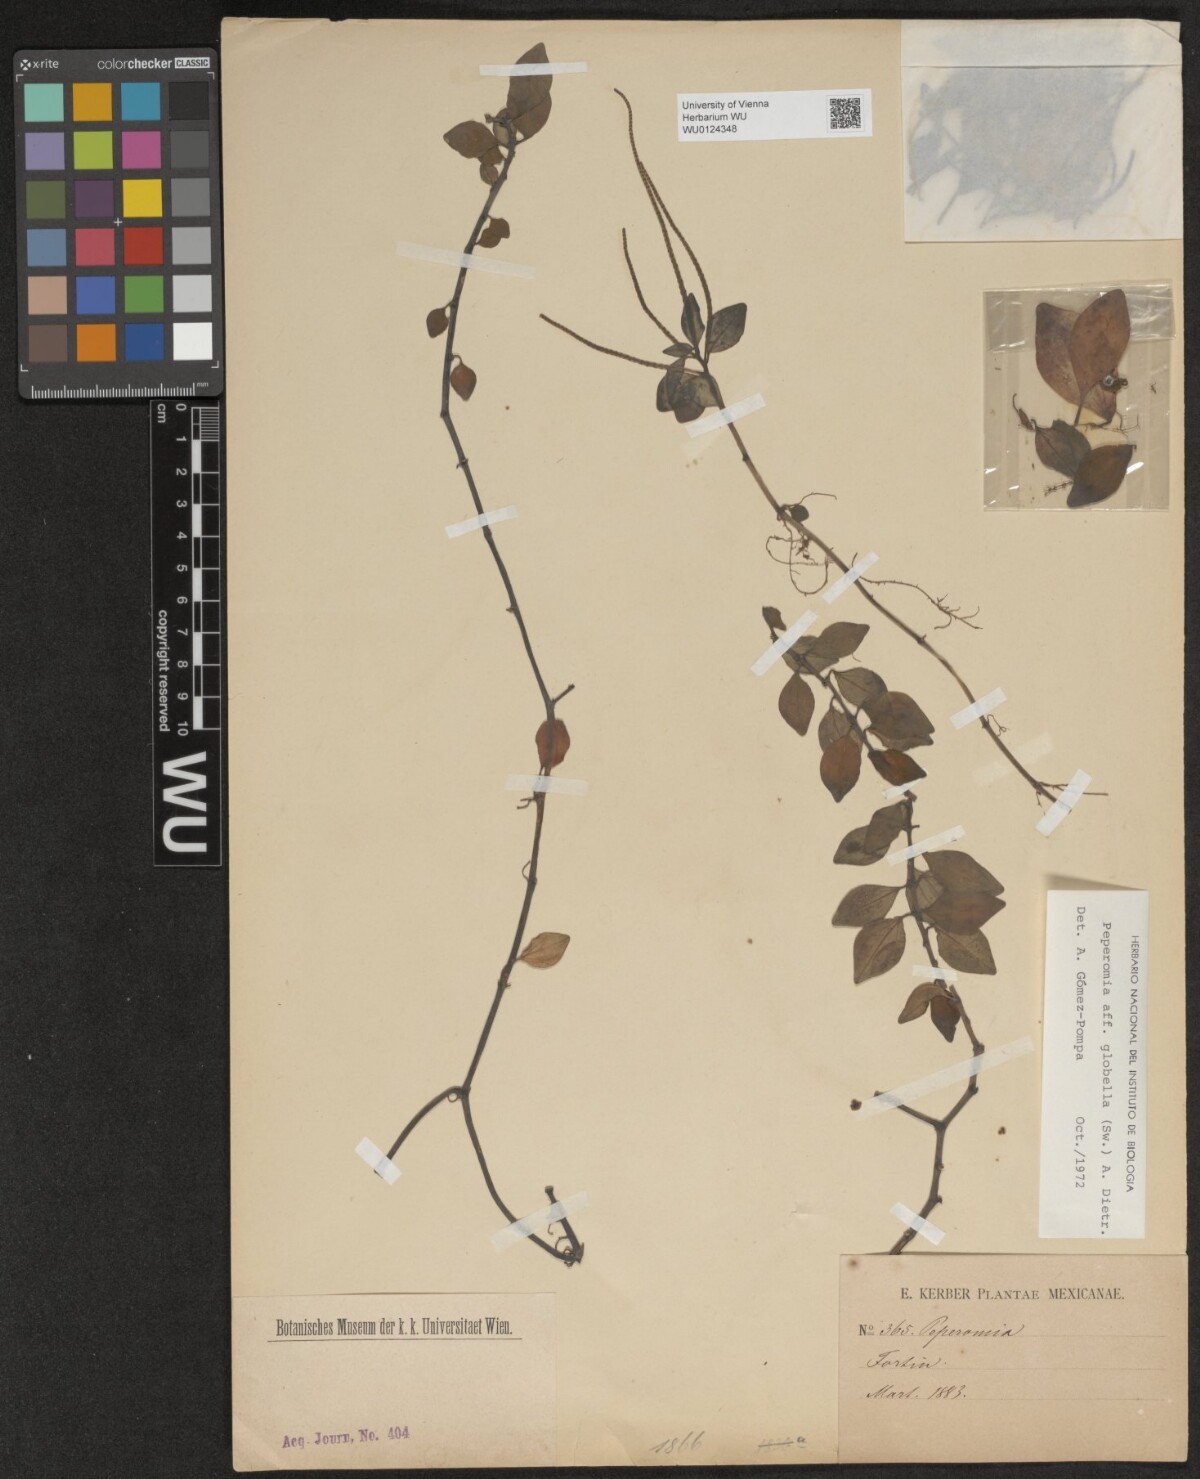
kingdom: Plantae
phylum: Tracheophyta
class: Magnoliopsida
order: Piperales
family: Piperaceae
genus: Peperomia
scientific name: Peperomia glabella
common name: Cypress peperomia
